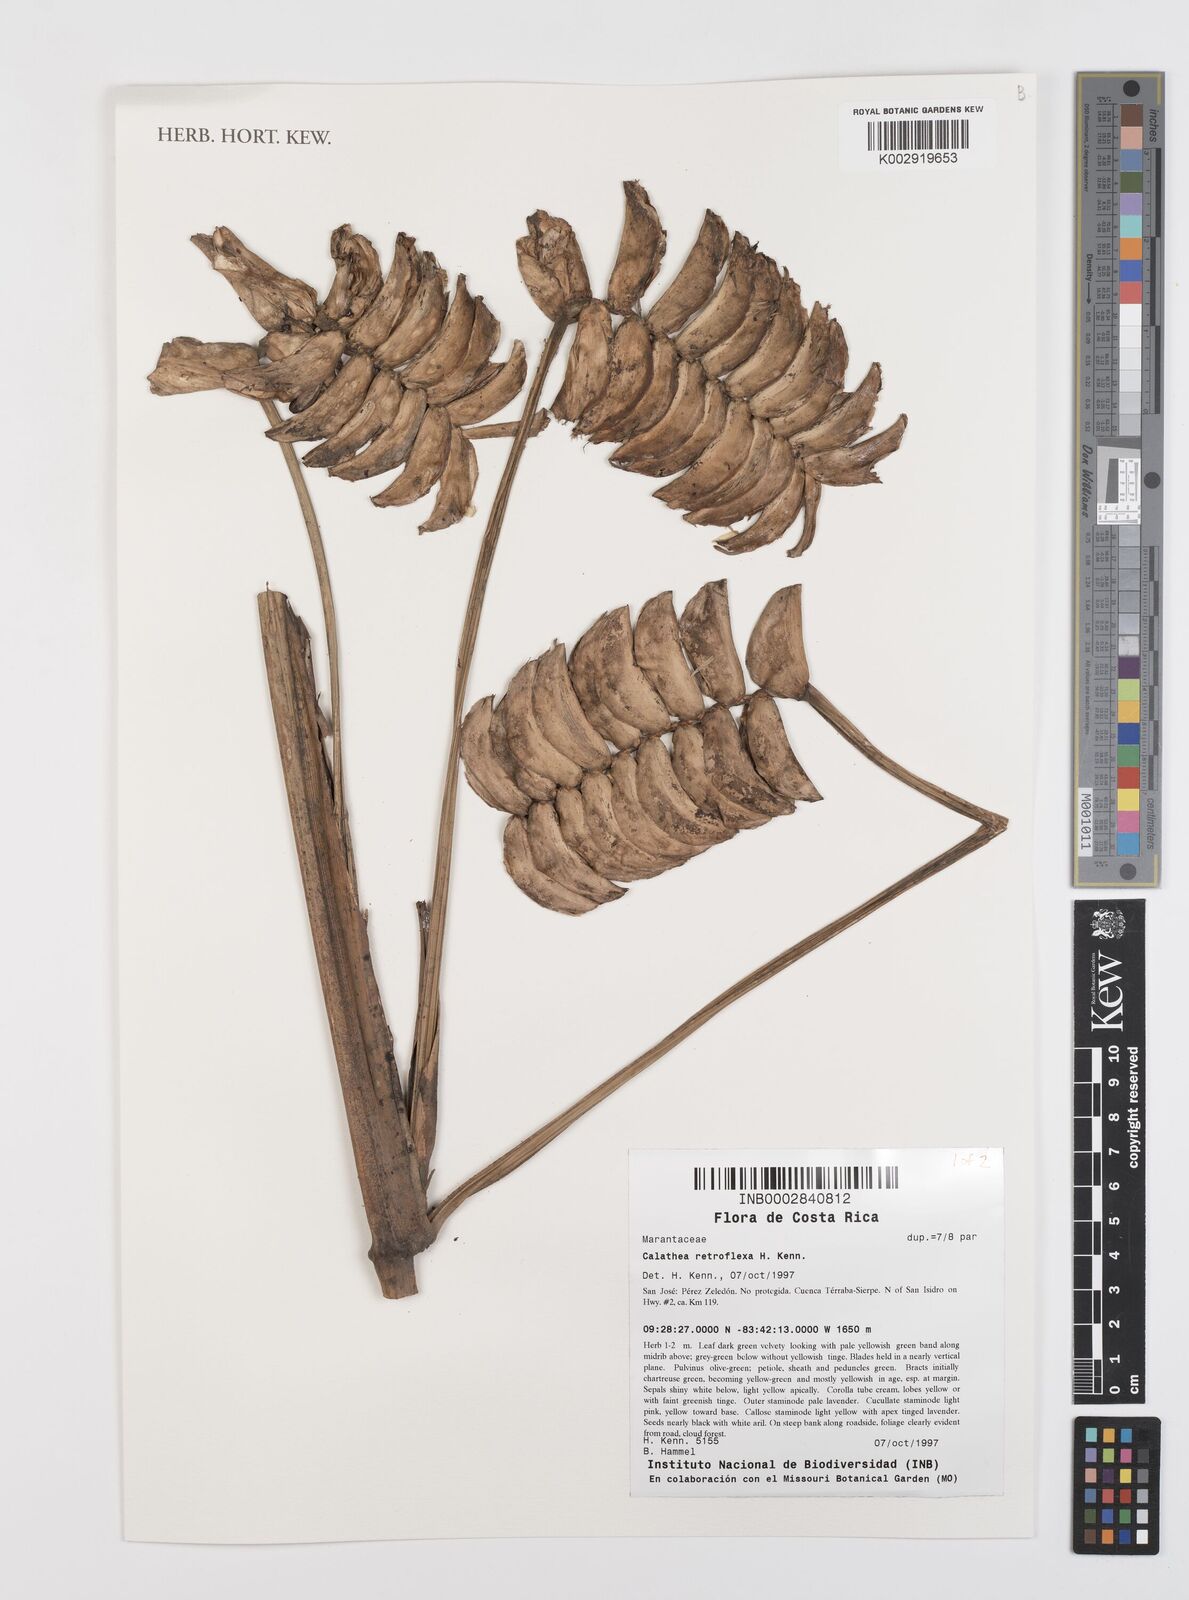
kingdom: Plantae
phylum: Tracheophyta
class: Liliopsida
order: Zingiberales
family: Marantaceae
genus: Calathea
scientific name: Calathea retroflexa
